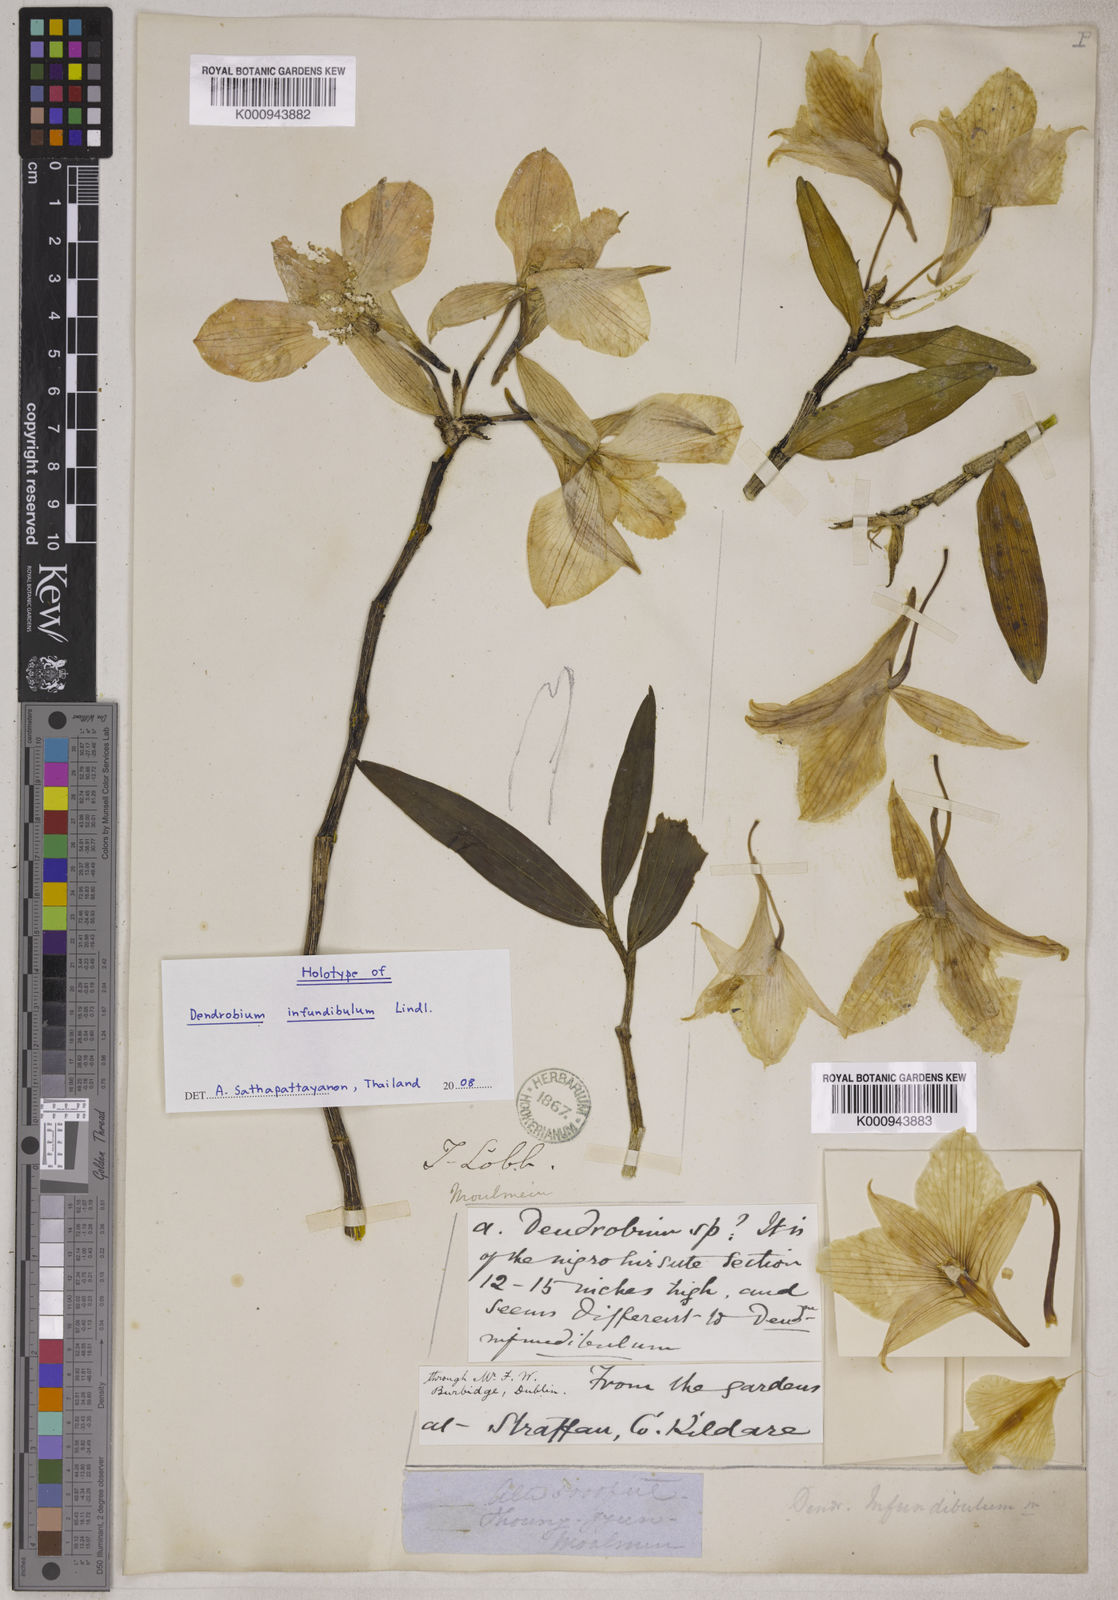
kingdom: Plantae
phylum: Tracheophyta
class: Liliopsida
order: Asparagales
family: Orchidaceae
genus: Dendrobium
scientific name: Dendrobium infundibulum
